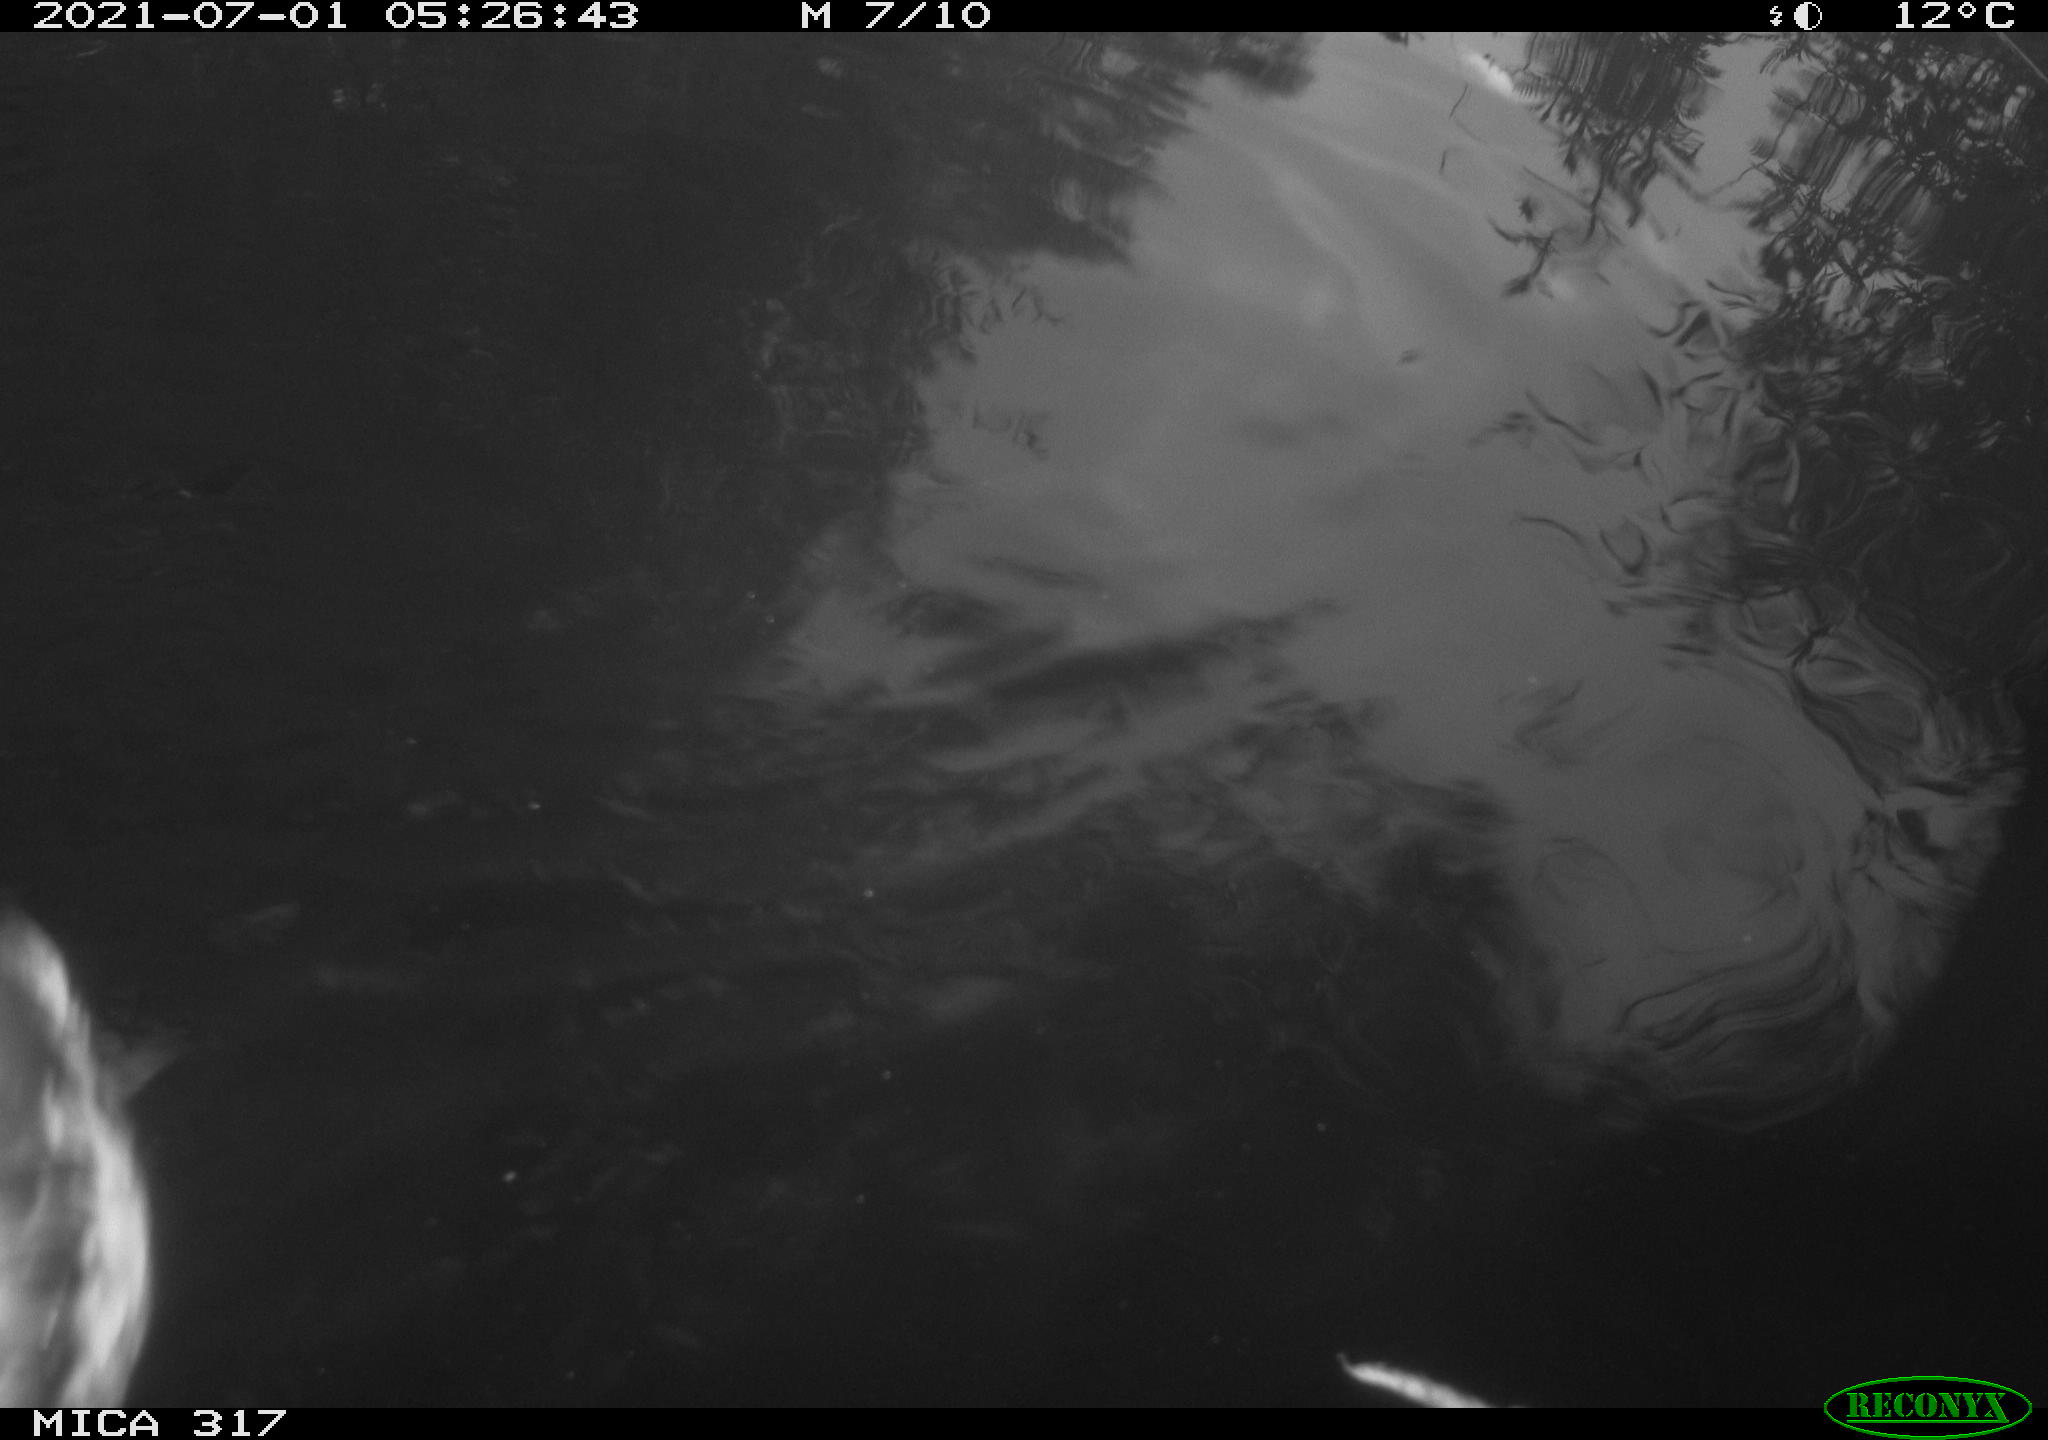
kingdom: Animalia
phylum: Chordata
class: Aves
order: Anseriformes
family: Anatidae
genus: Mareca
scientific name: Mareca strepera
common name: Gadwall
